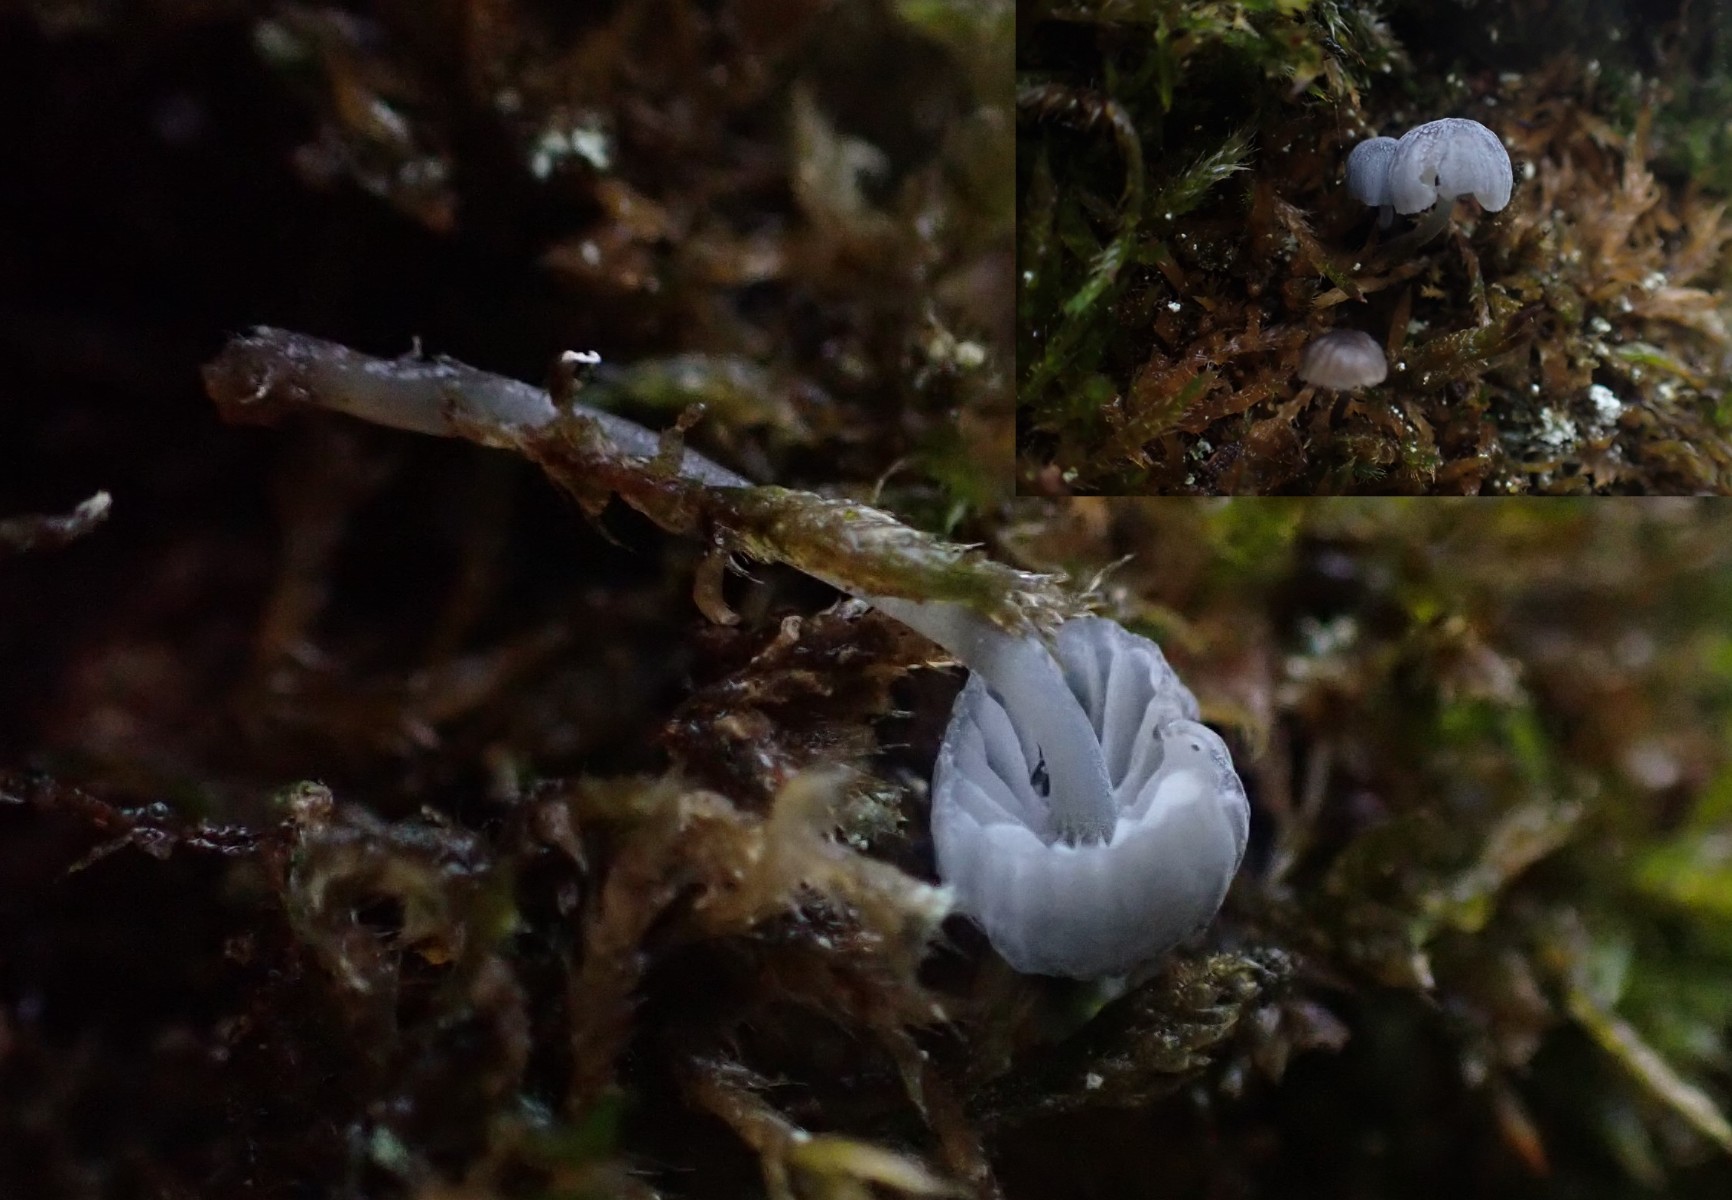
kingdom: Fungi
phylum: Basidiomycota
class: Agaricomycetes
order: Agaricales
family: Mycenaceae
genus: Mycena
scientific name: Mycena pseudocorticola
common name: gråblå bark-huesvamp
